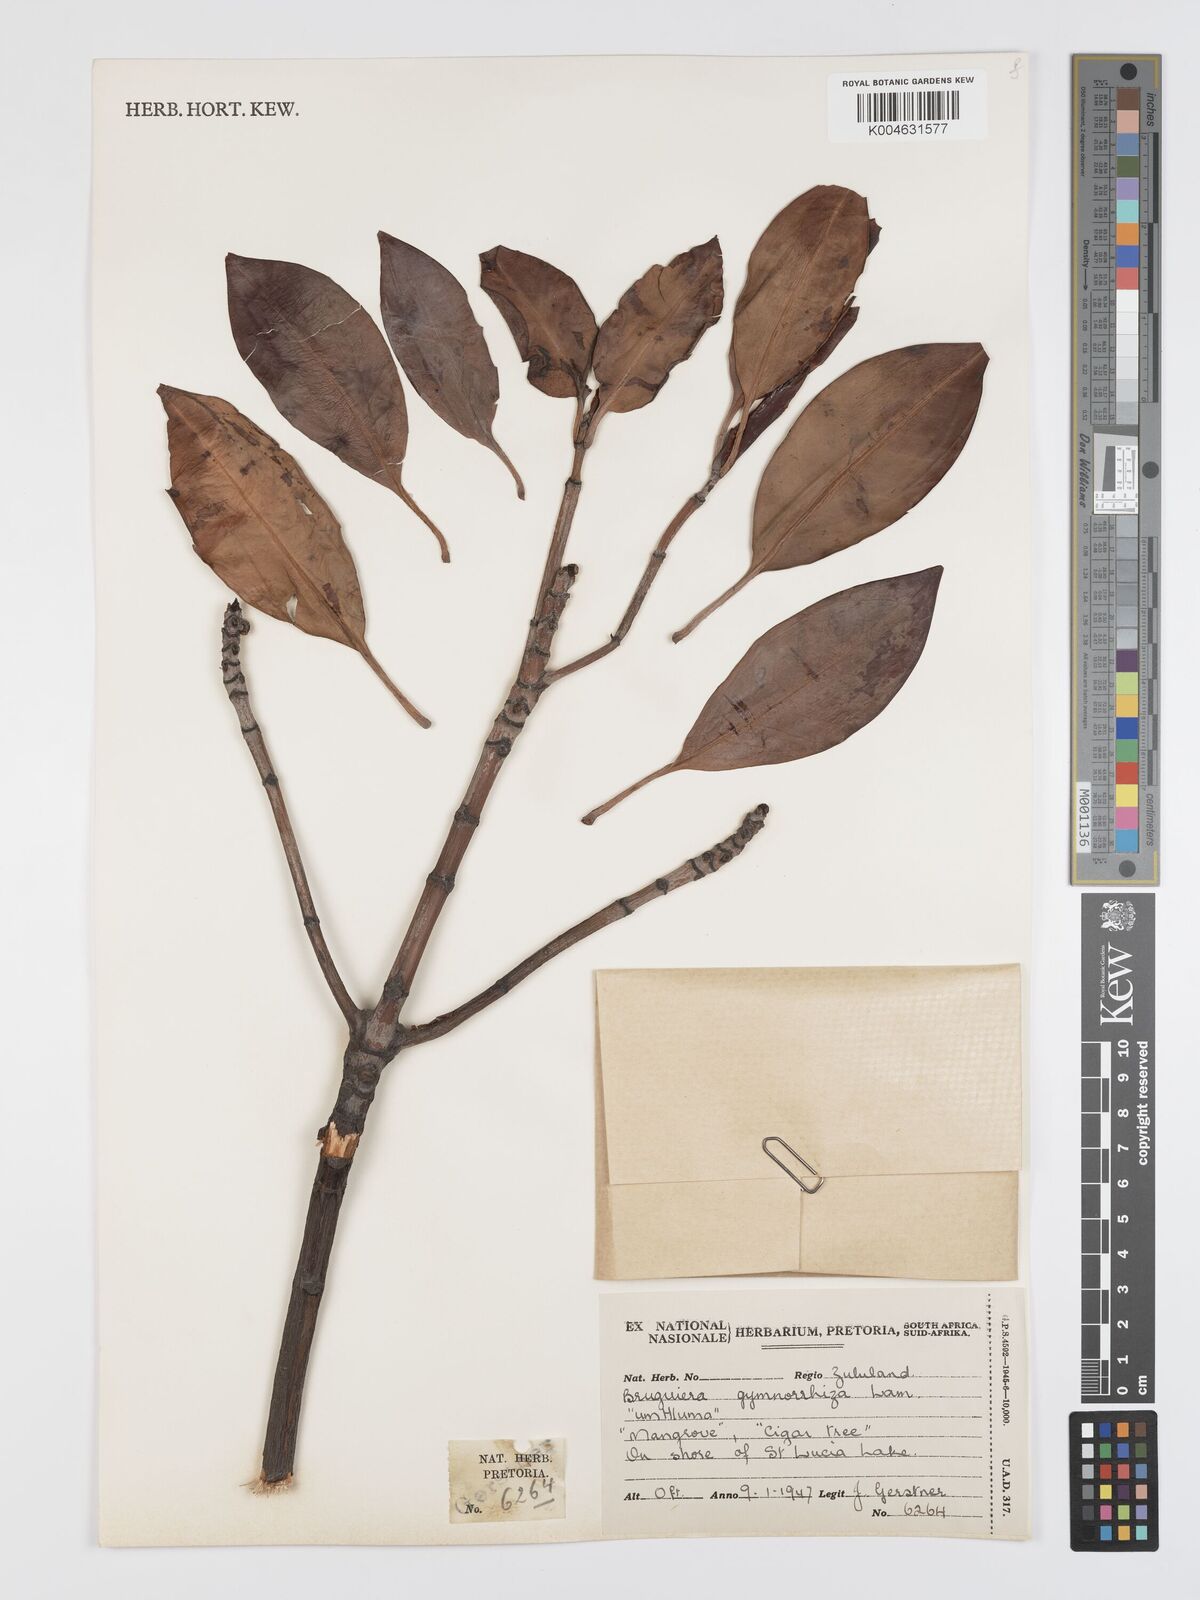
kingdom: Plantae
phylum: Tracheophyta
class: Magnoliopsida
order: Malpighiales
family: Rhizophoraceae
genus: Bruguiera
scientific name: Bruguiera gymnorhiza
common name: Oriental mangrove
